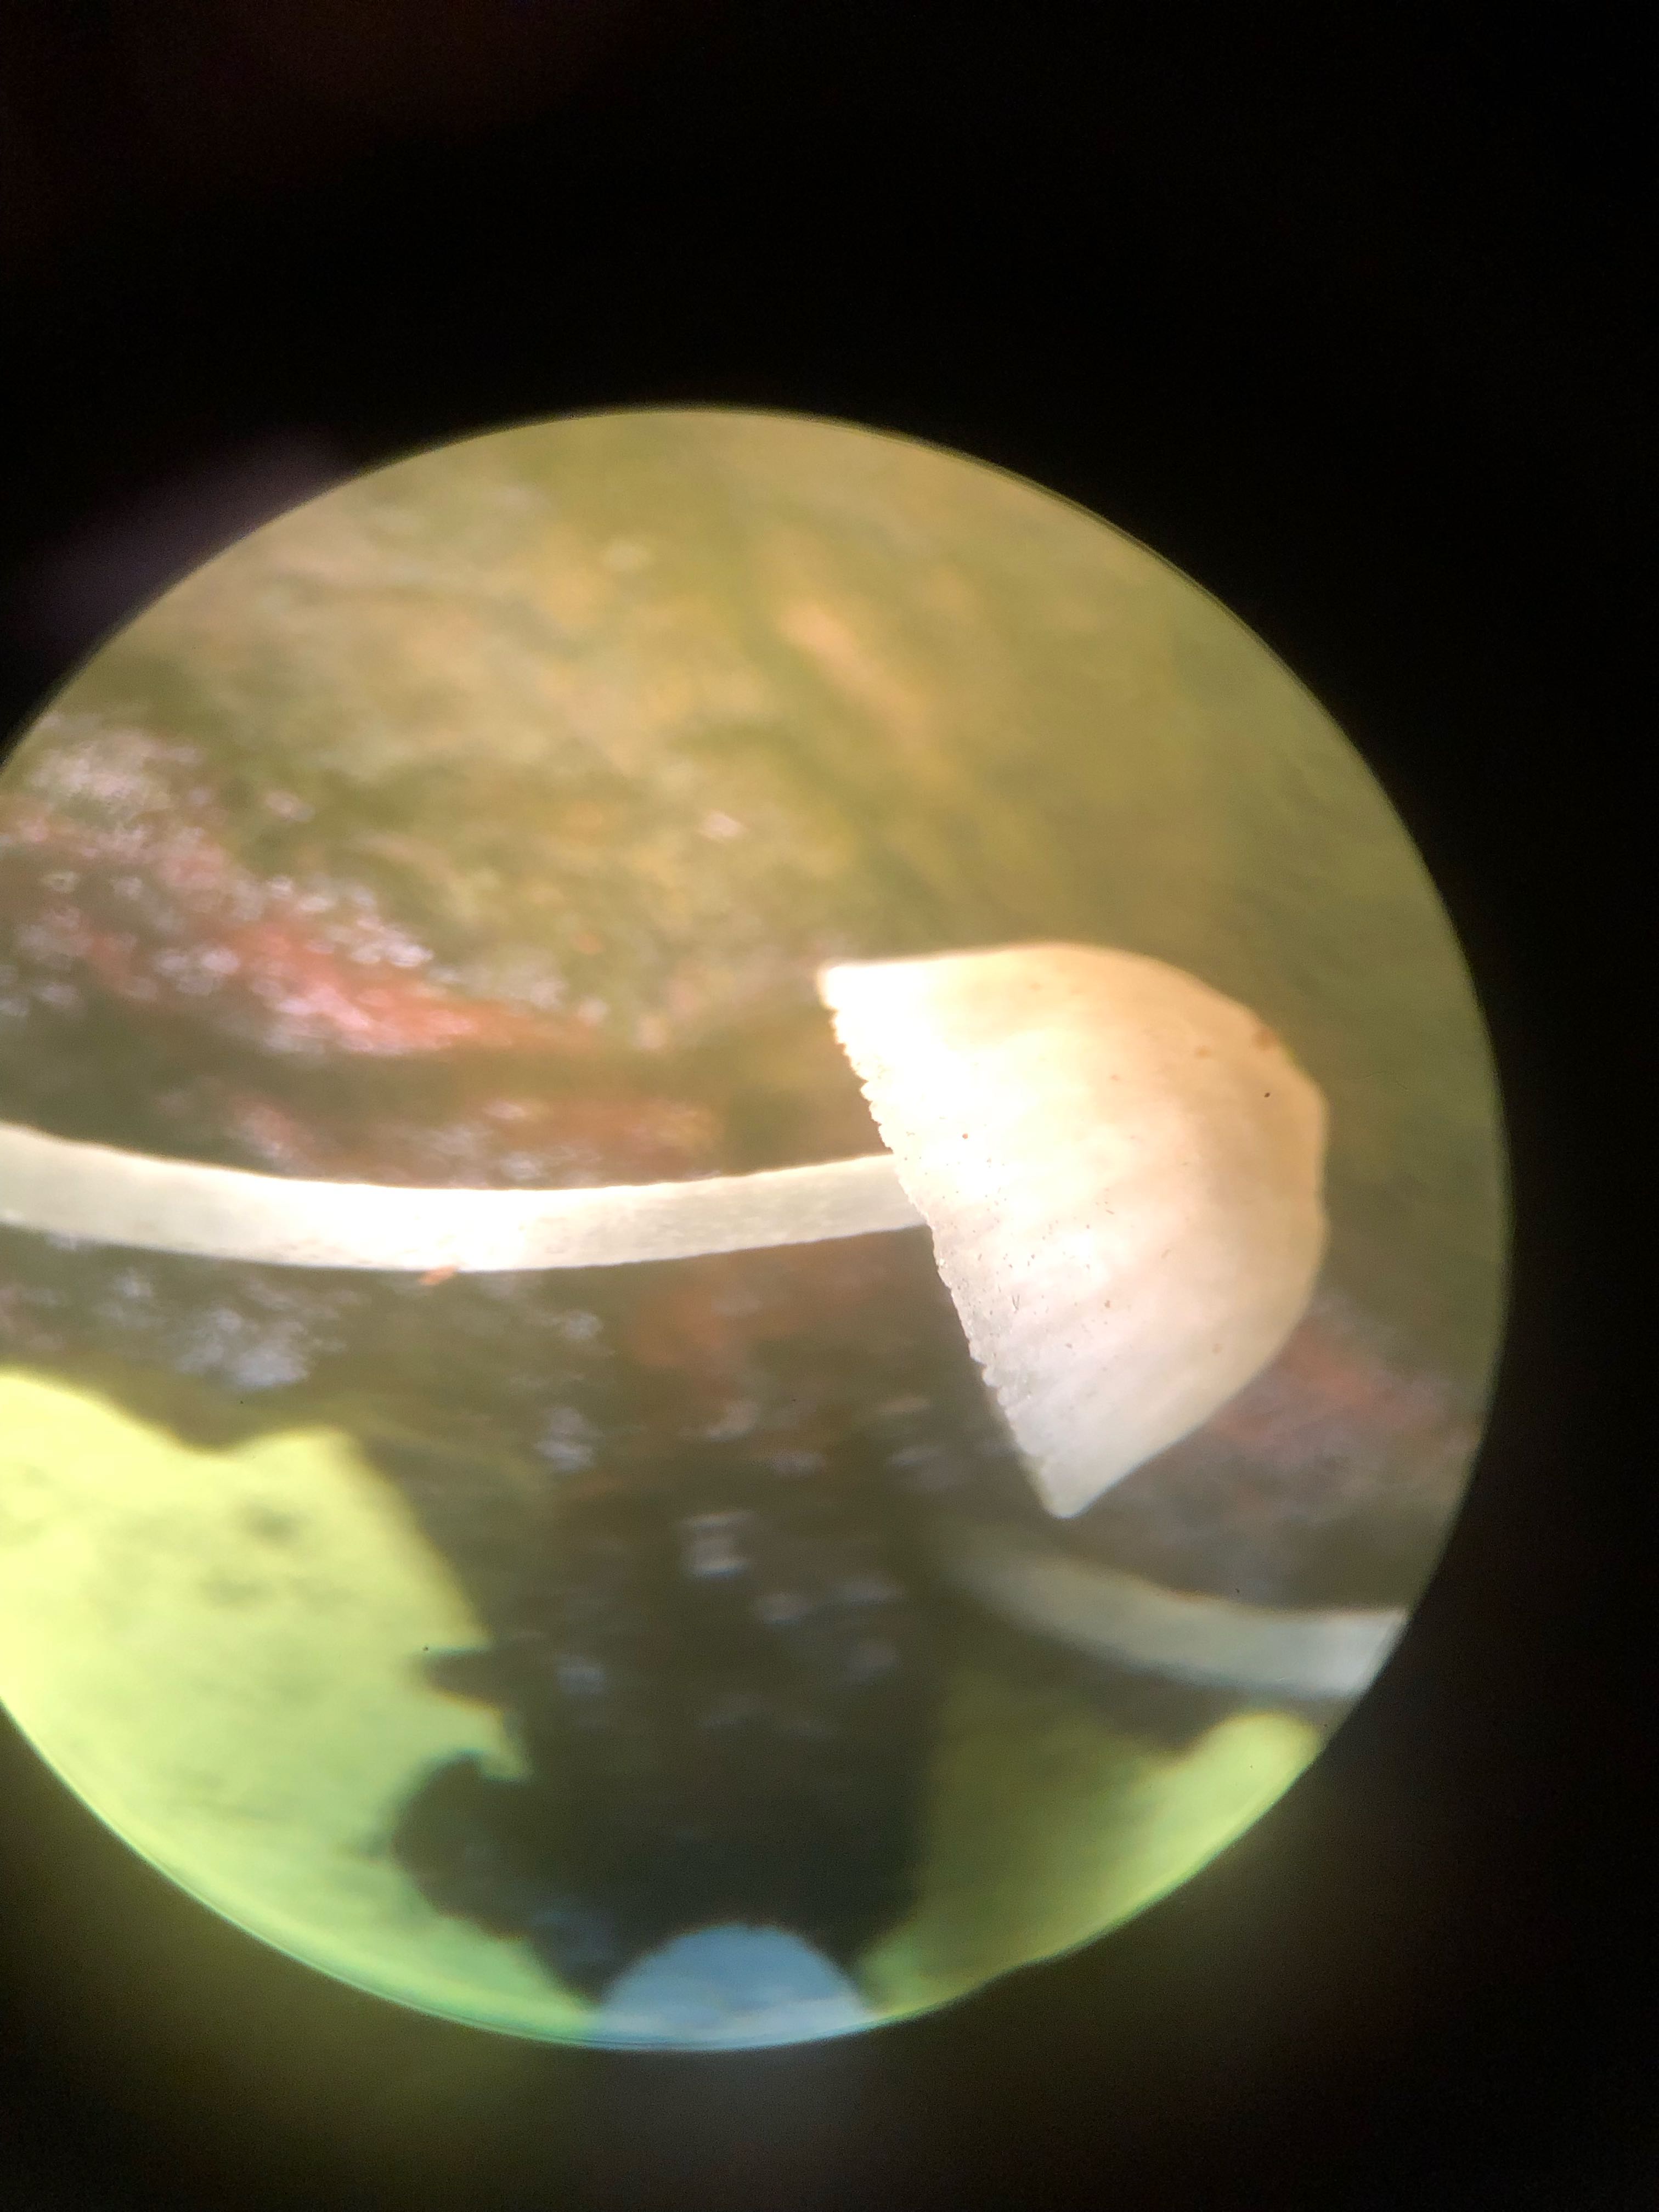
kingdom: Fungi
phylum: Basidiomycota
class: Agaricomycetes
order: Agaricales
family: Porotheleaceae
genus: Phloeomana
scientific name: Phloeomana
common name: huesvamp
